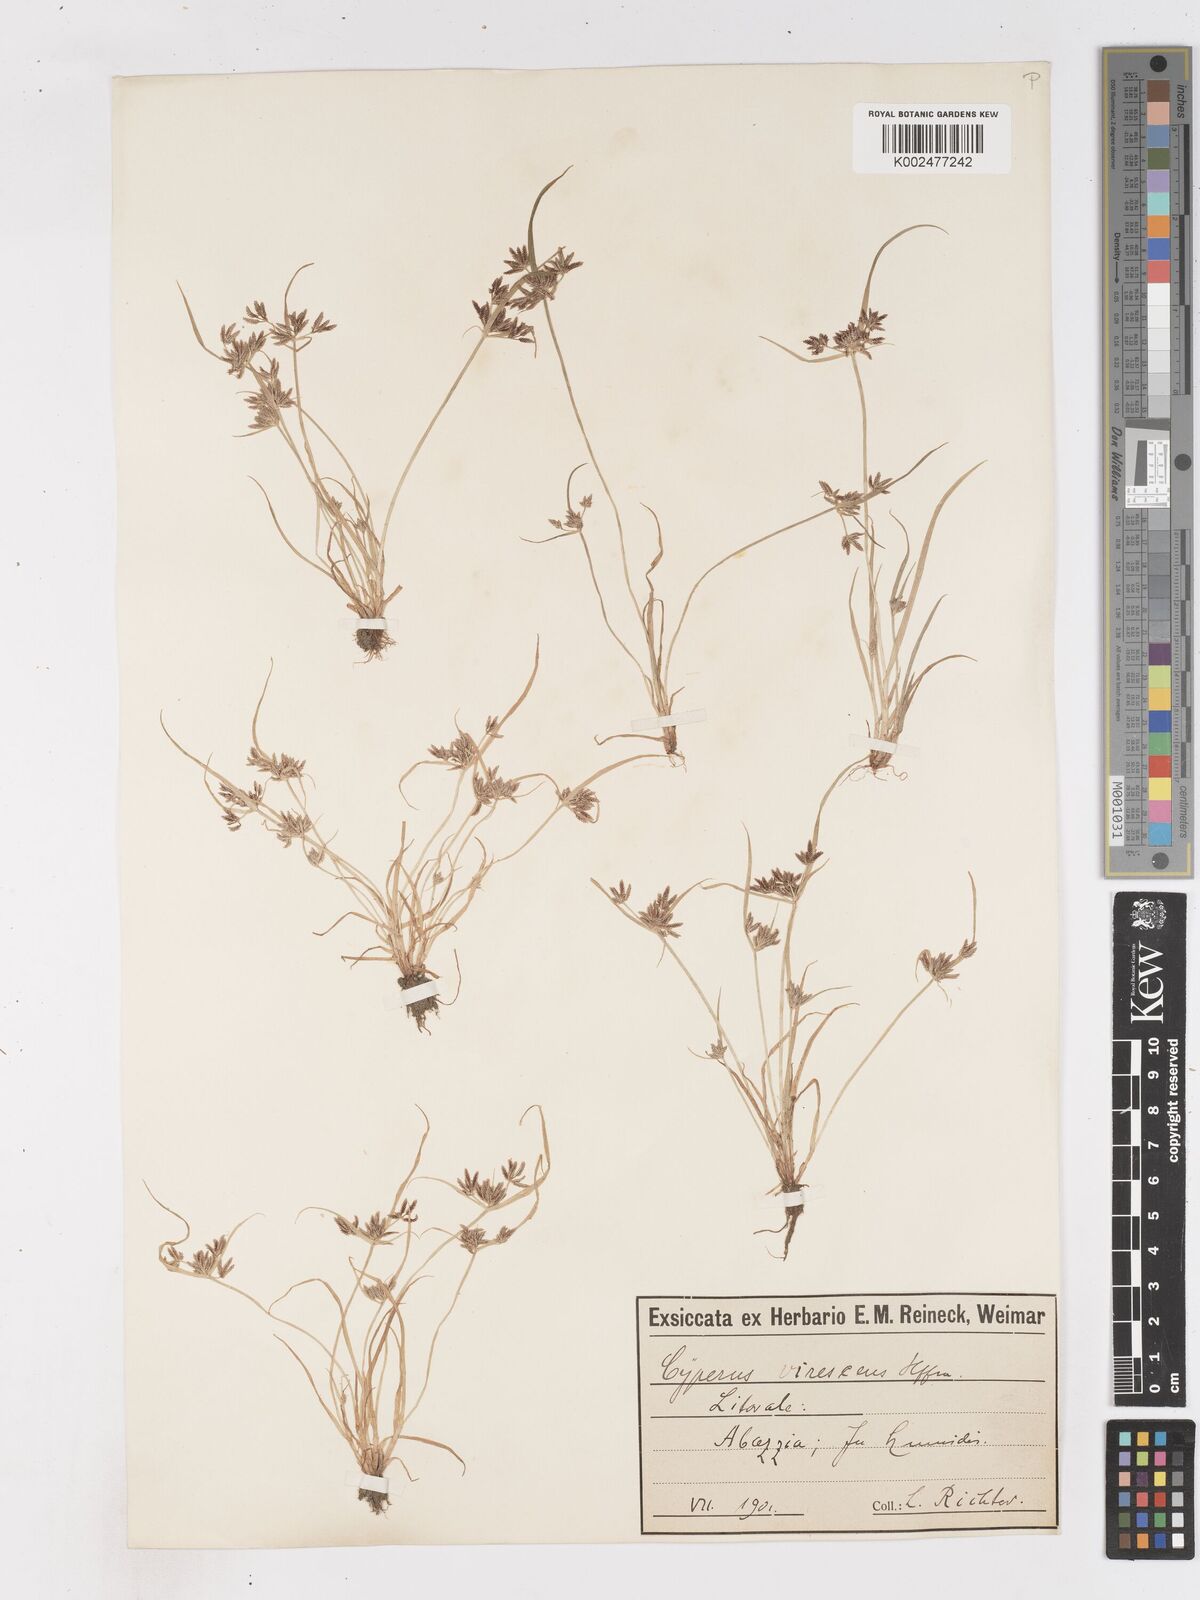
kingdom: Plantae
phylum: Tracheophyta
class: Liliopsida
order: Poales
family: Cyperaceae
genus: Cyperus
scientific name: Cyperus fuscus
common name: Brown galingale
